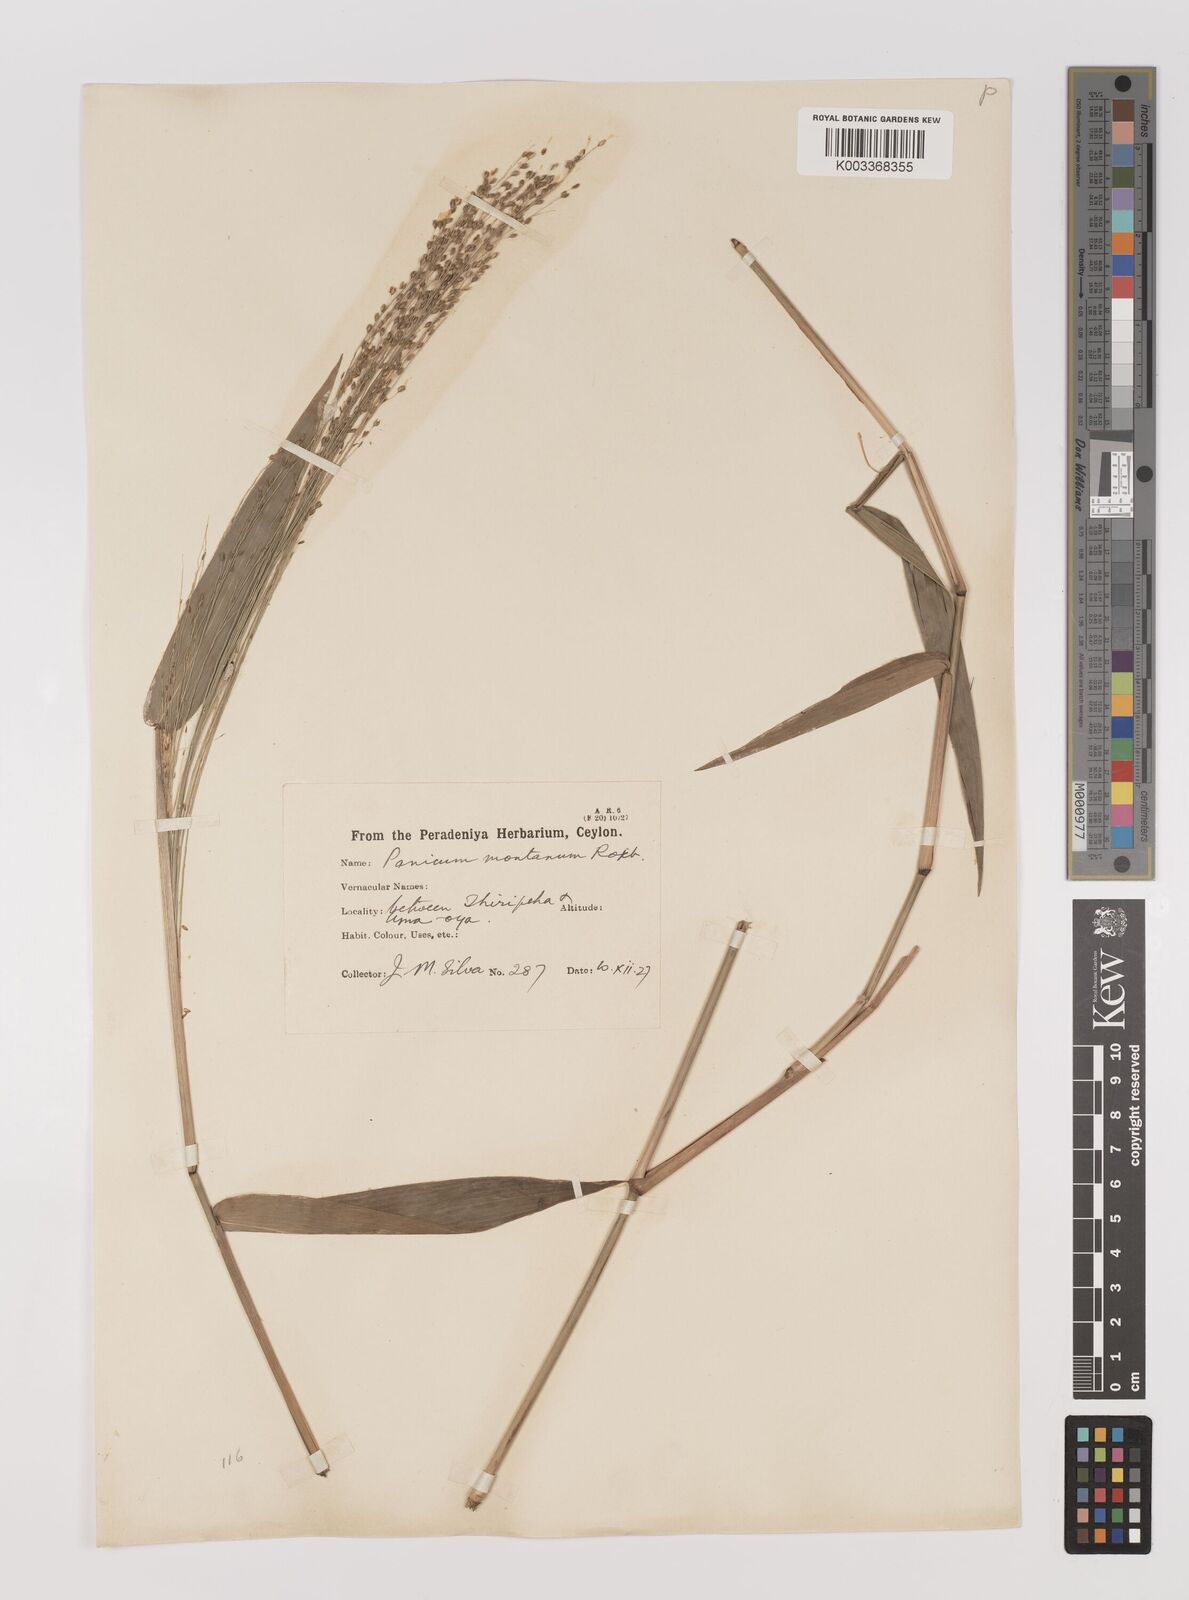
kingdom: Plantae
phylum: Tracheophyta
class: Liliopsida
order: Poales
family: Poaceae
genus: Panicum
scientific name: Panicum notatum
